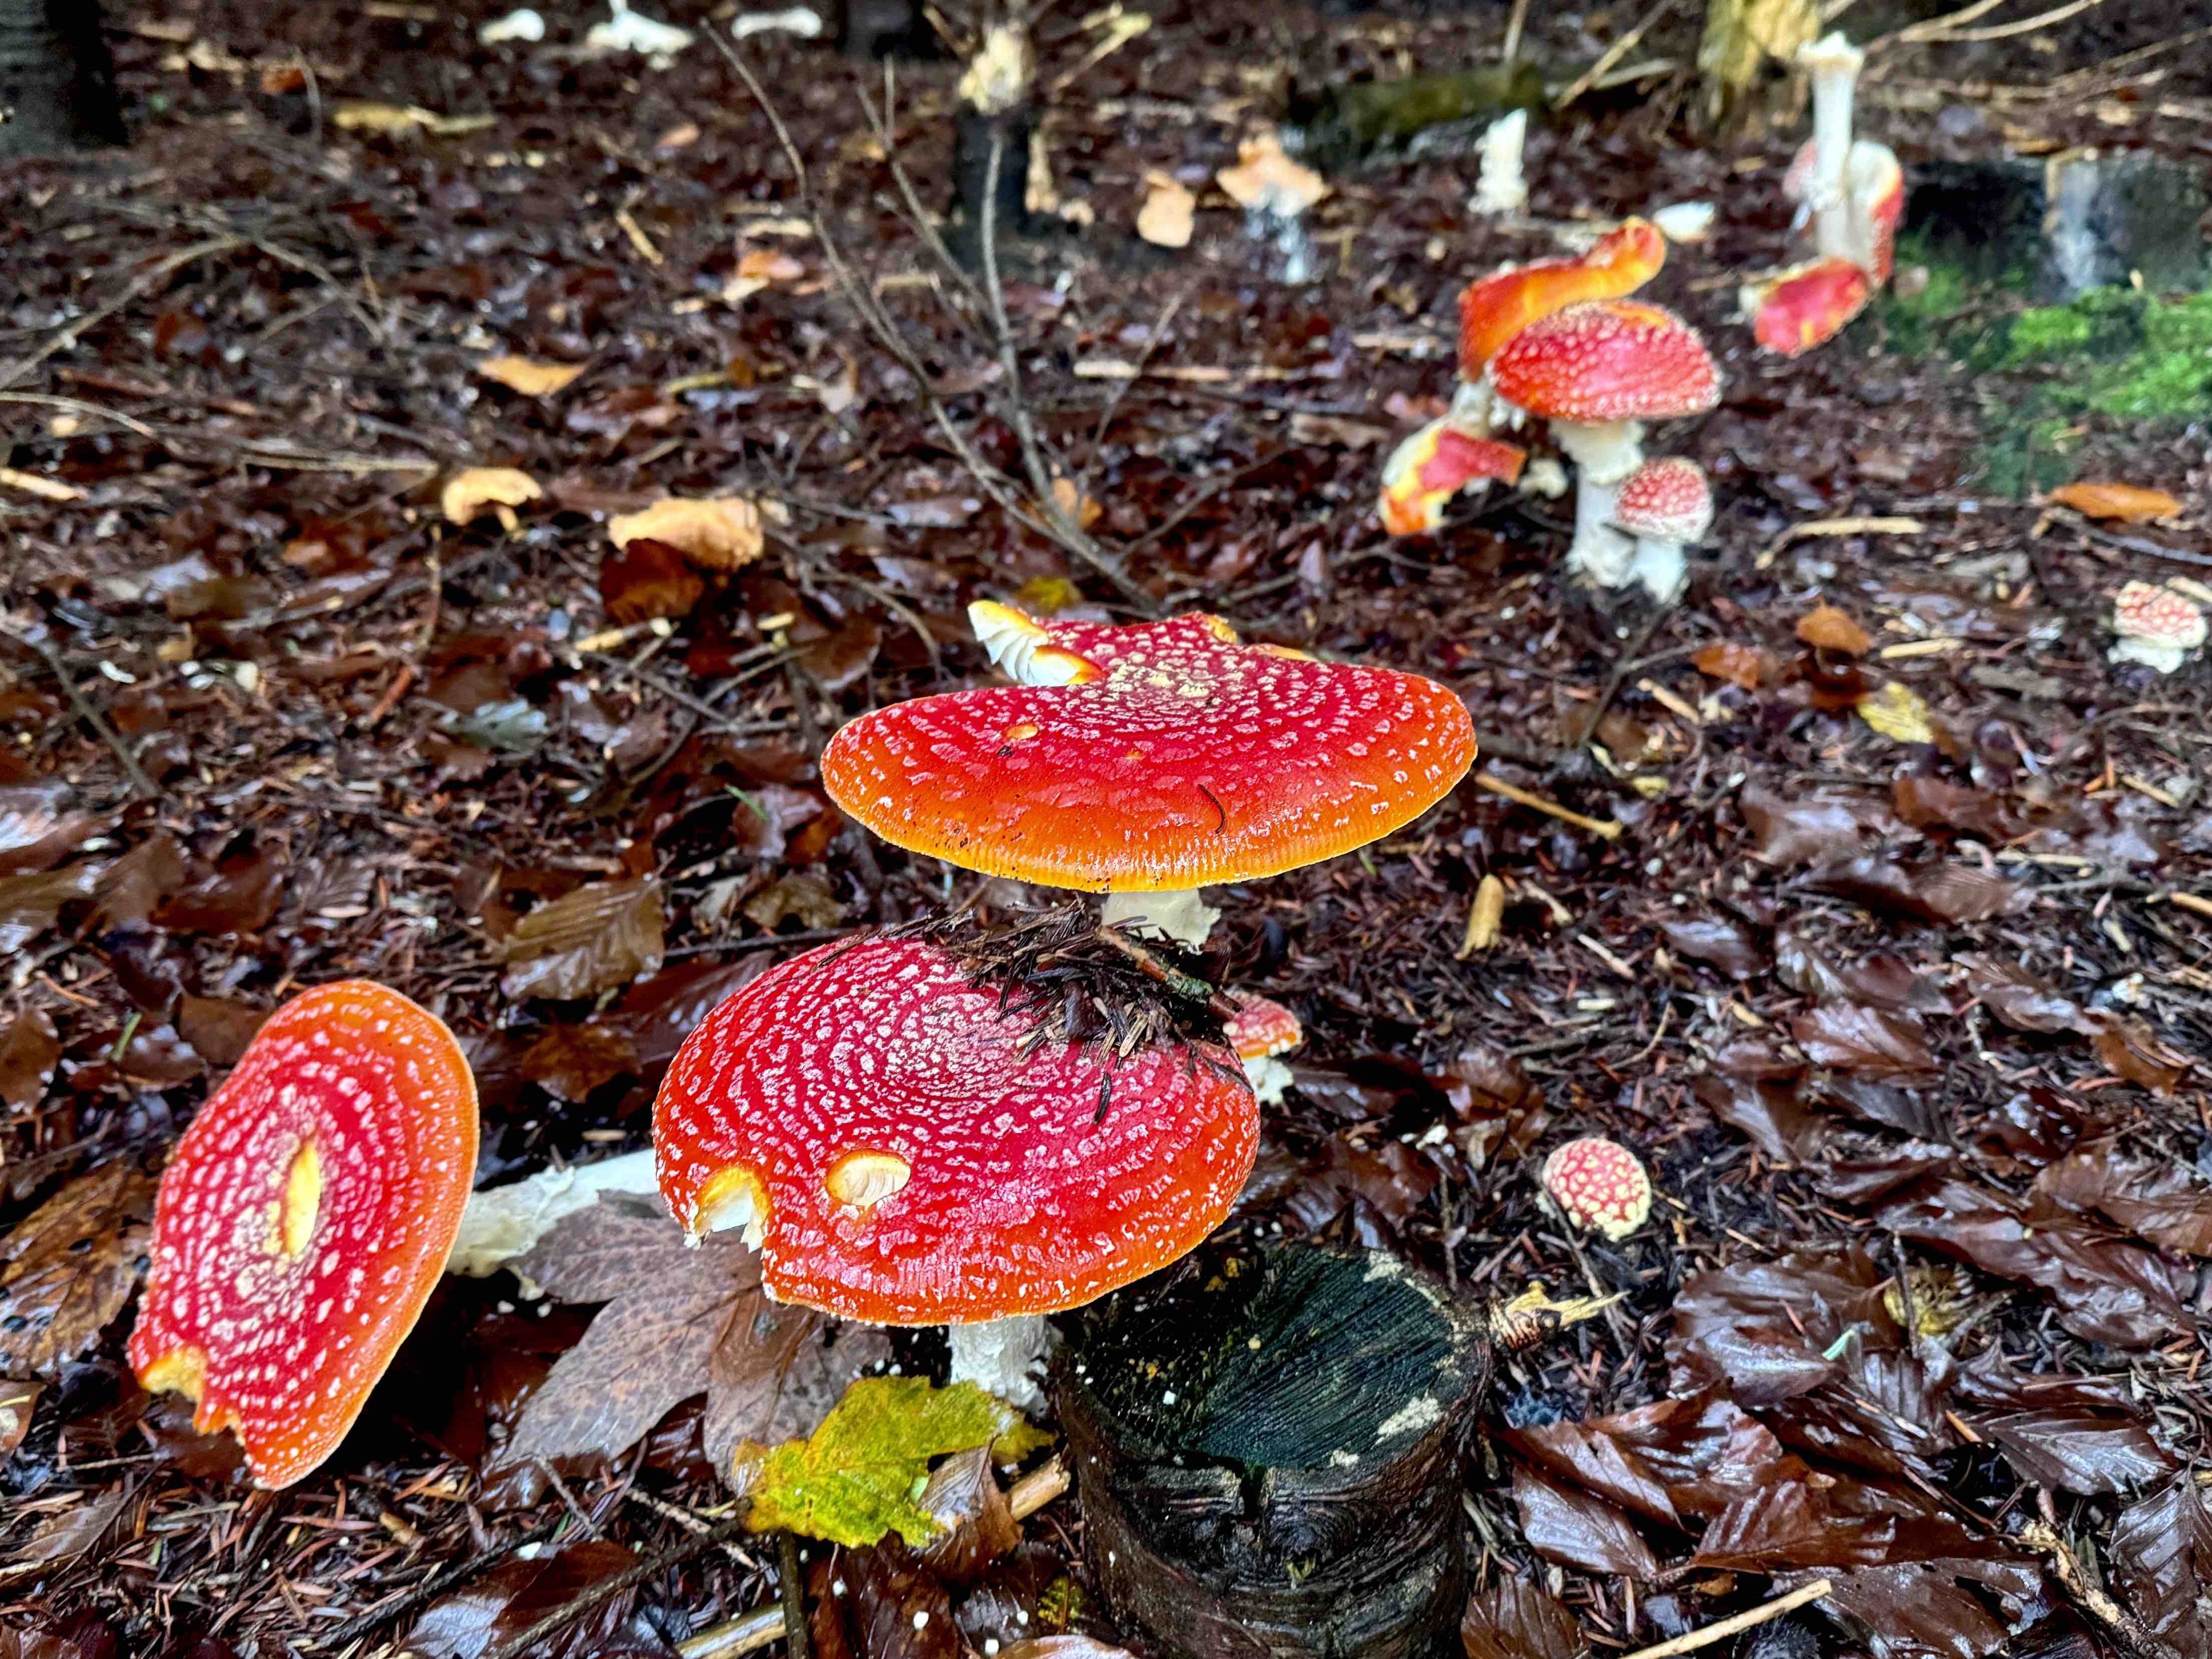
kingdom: Fungi
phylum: Basidiomycota
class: Agaricomycetes
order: Agaricales
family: Amanitaceae
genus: Amanita
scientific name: Amanita muscaria
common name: rød fluesvamp
